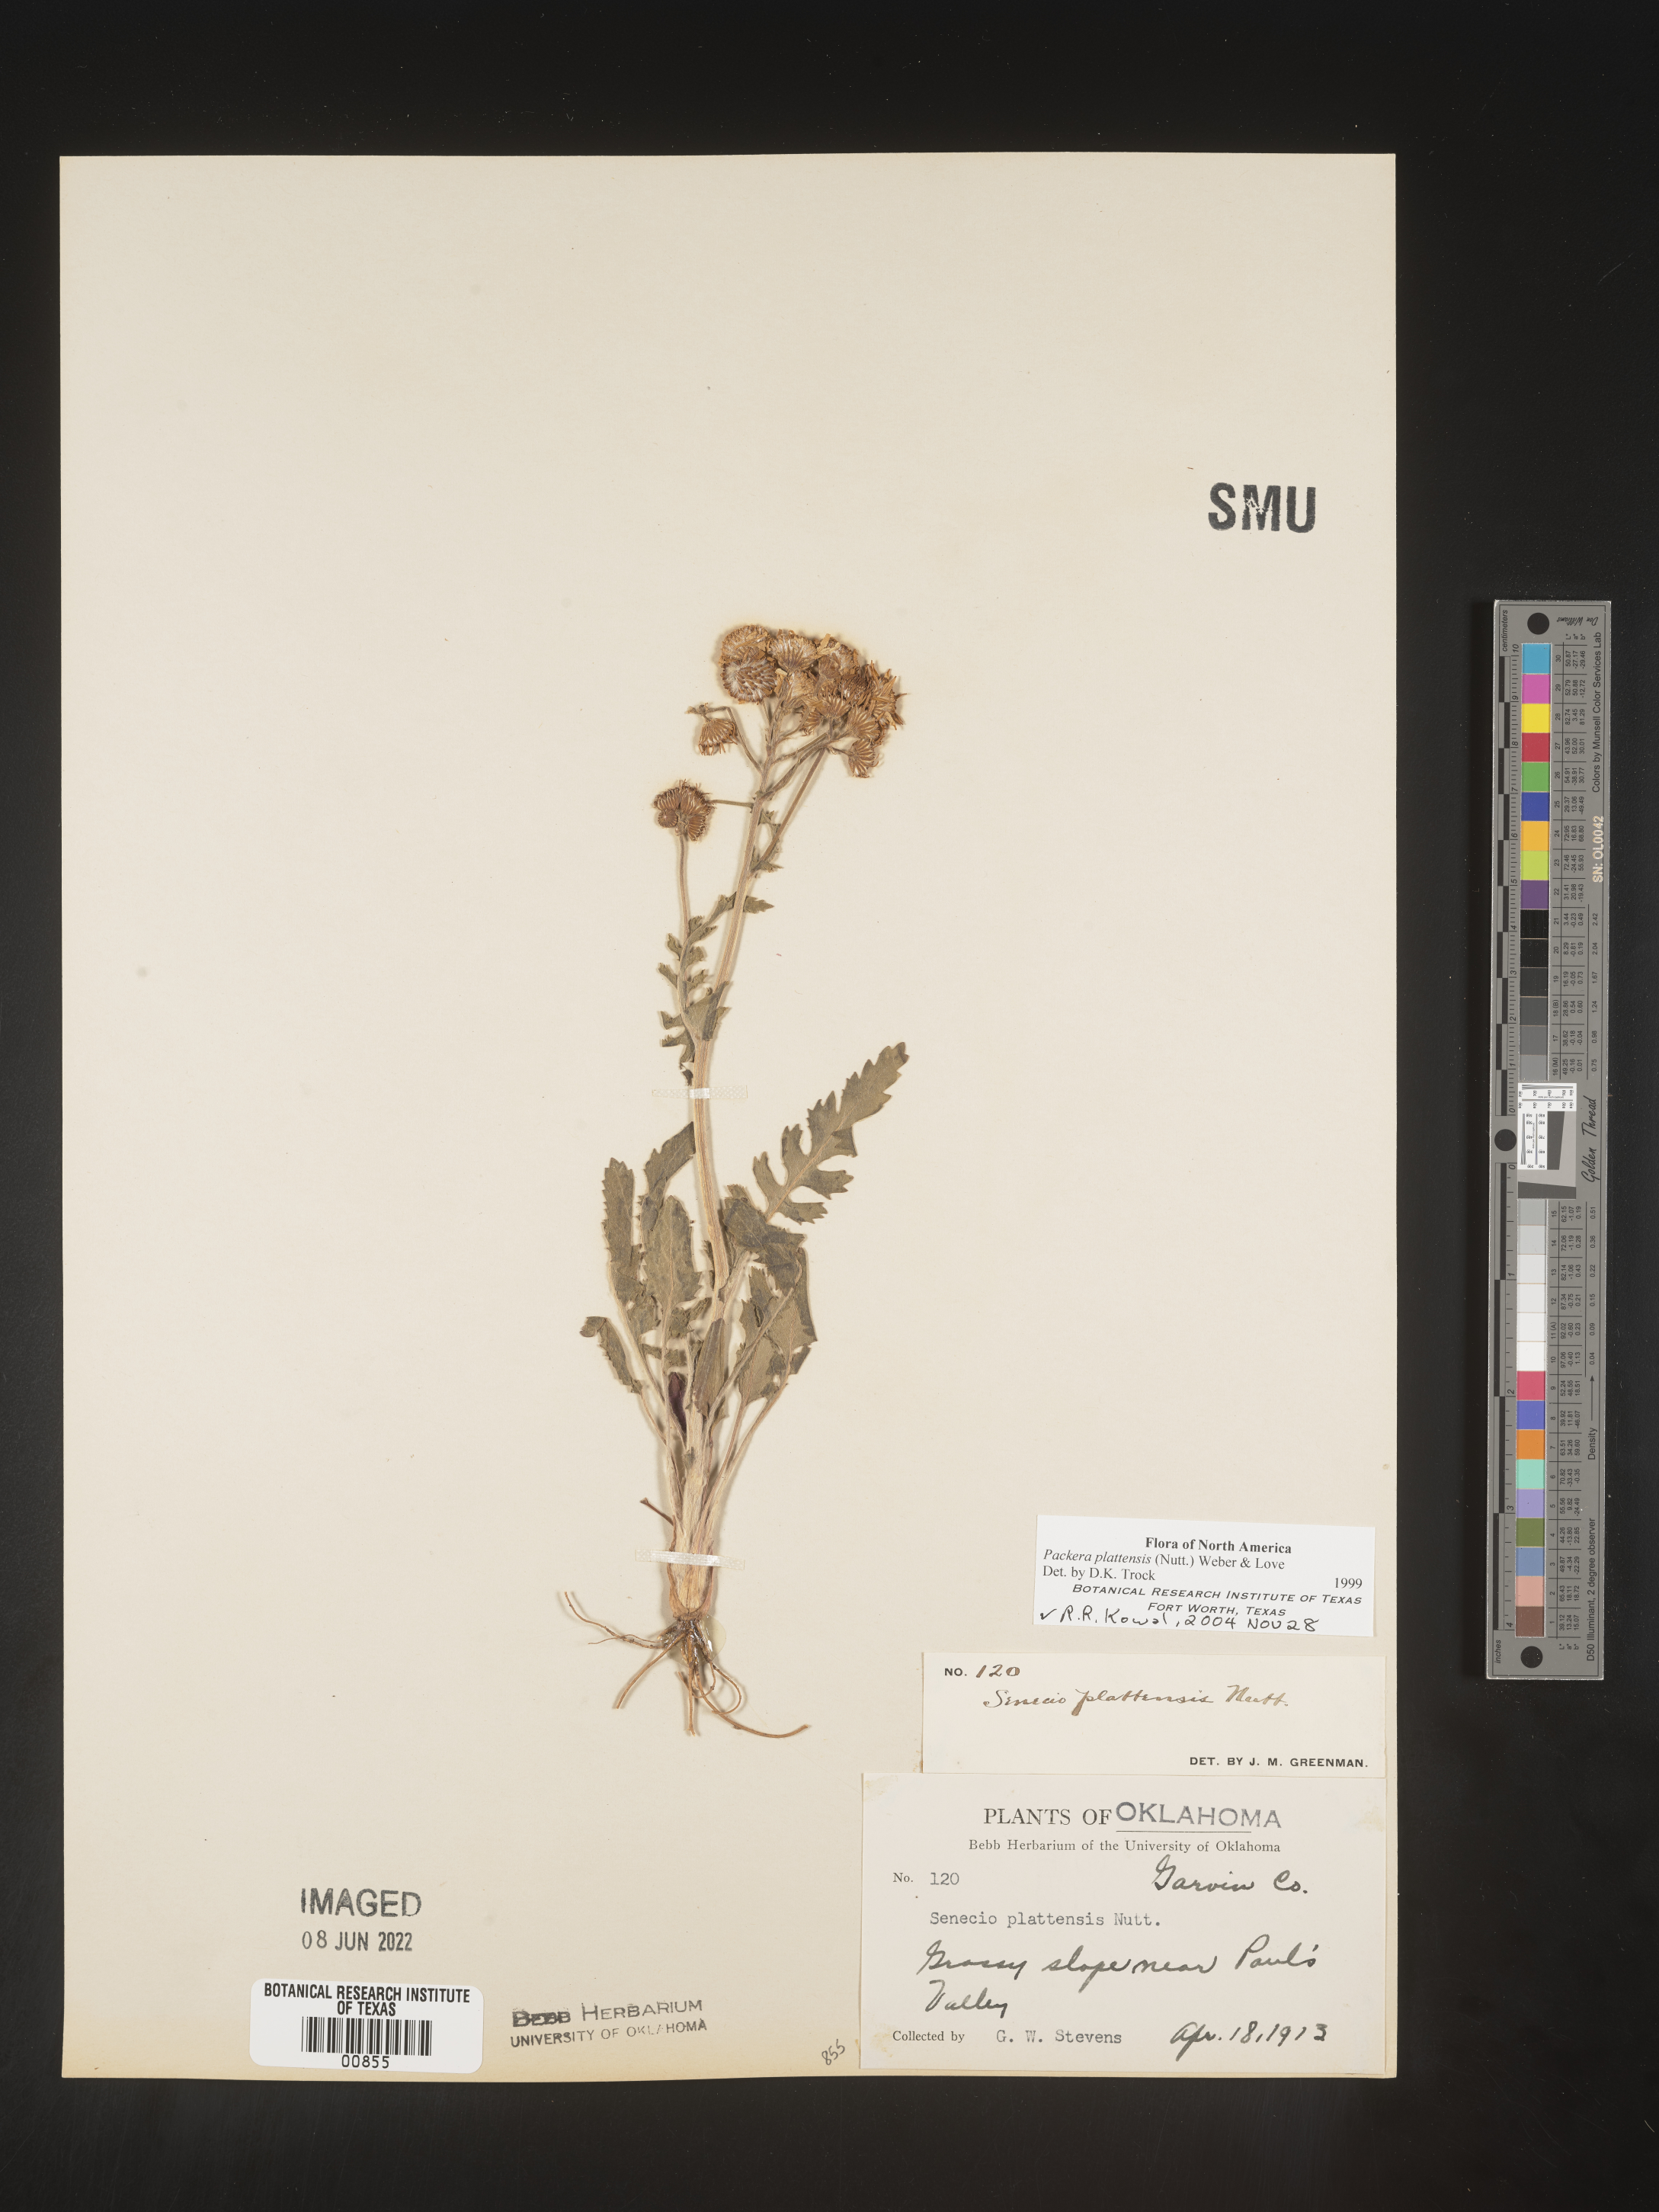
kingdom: Plantae
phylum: Tracheophyta
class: Magnoliopsida
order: Asterales
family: Asteraceae
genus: Packera
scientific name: Packera plattensis
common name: Prairie groundsel
